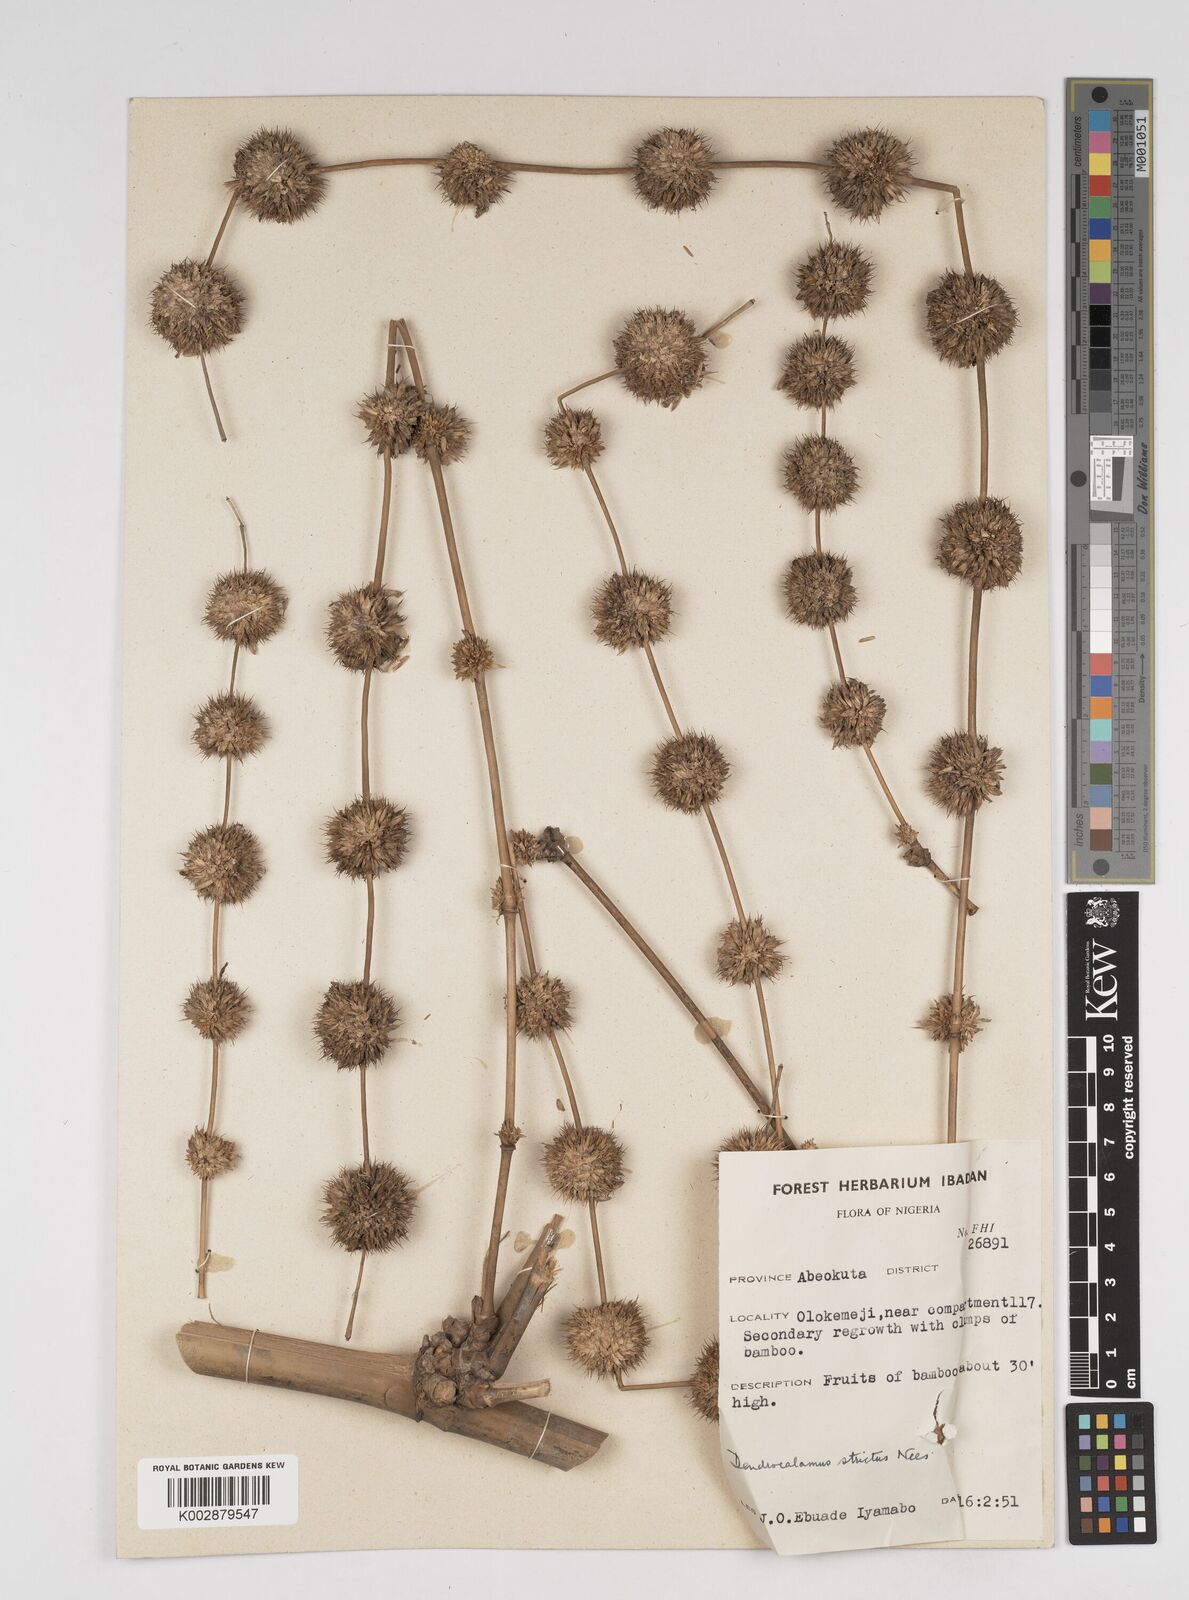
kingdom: Plantae
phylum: Tracheophyta
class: Liliopsida
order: Poales
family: Poaceae
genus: Dendrocalamus
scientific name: Dendrocalamus strictus
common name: Male bamboo
